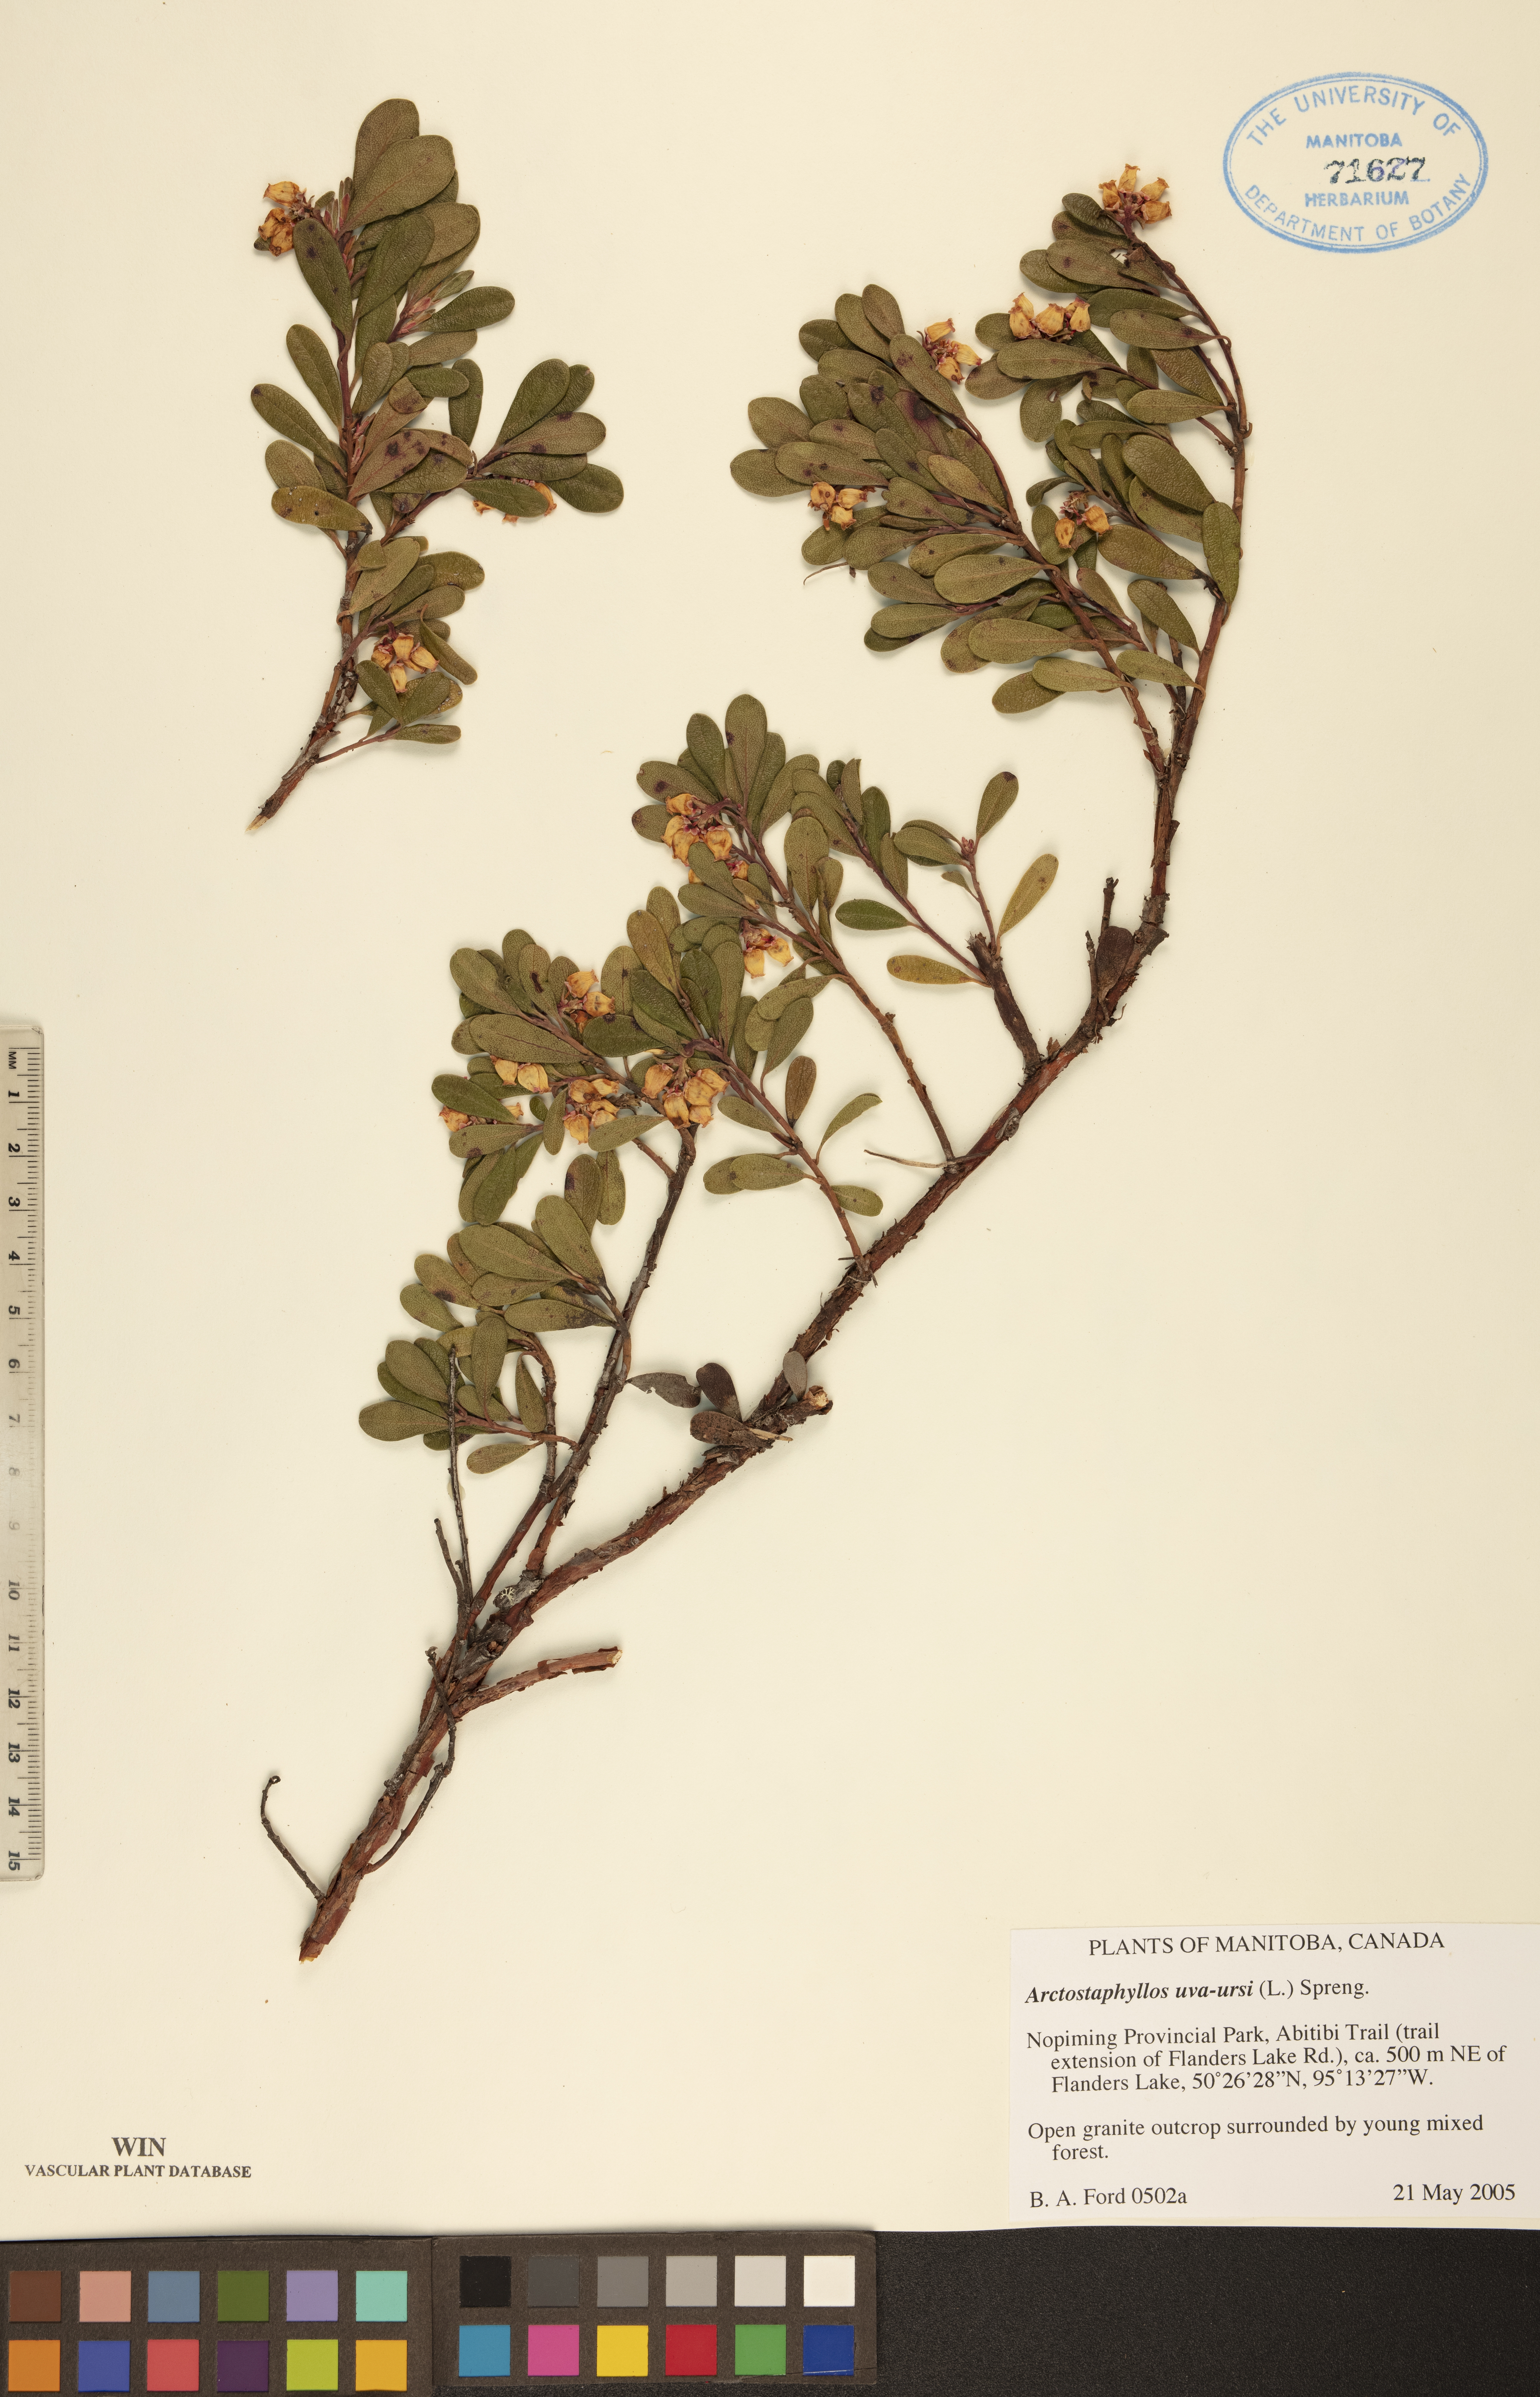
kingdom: Plantae
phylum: Tracheophyta
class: Magnoliopsida
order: Ericales
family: Ericaceae
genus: Arctostaphylos
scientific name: Arctostaphylos uva-ursi
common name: Bearberry
